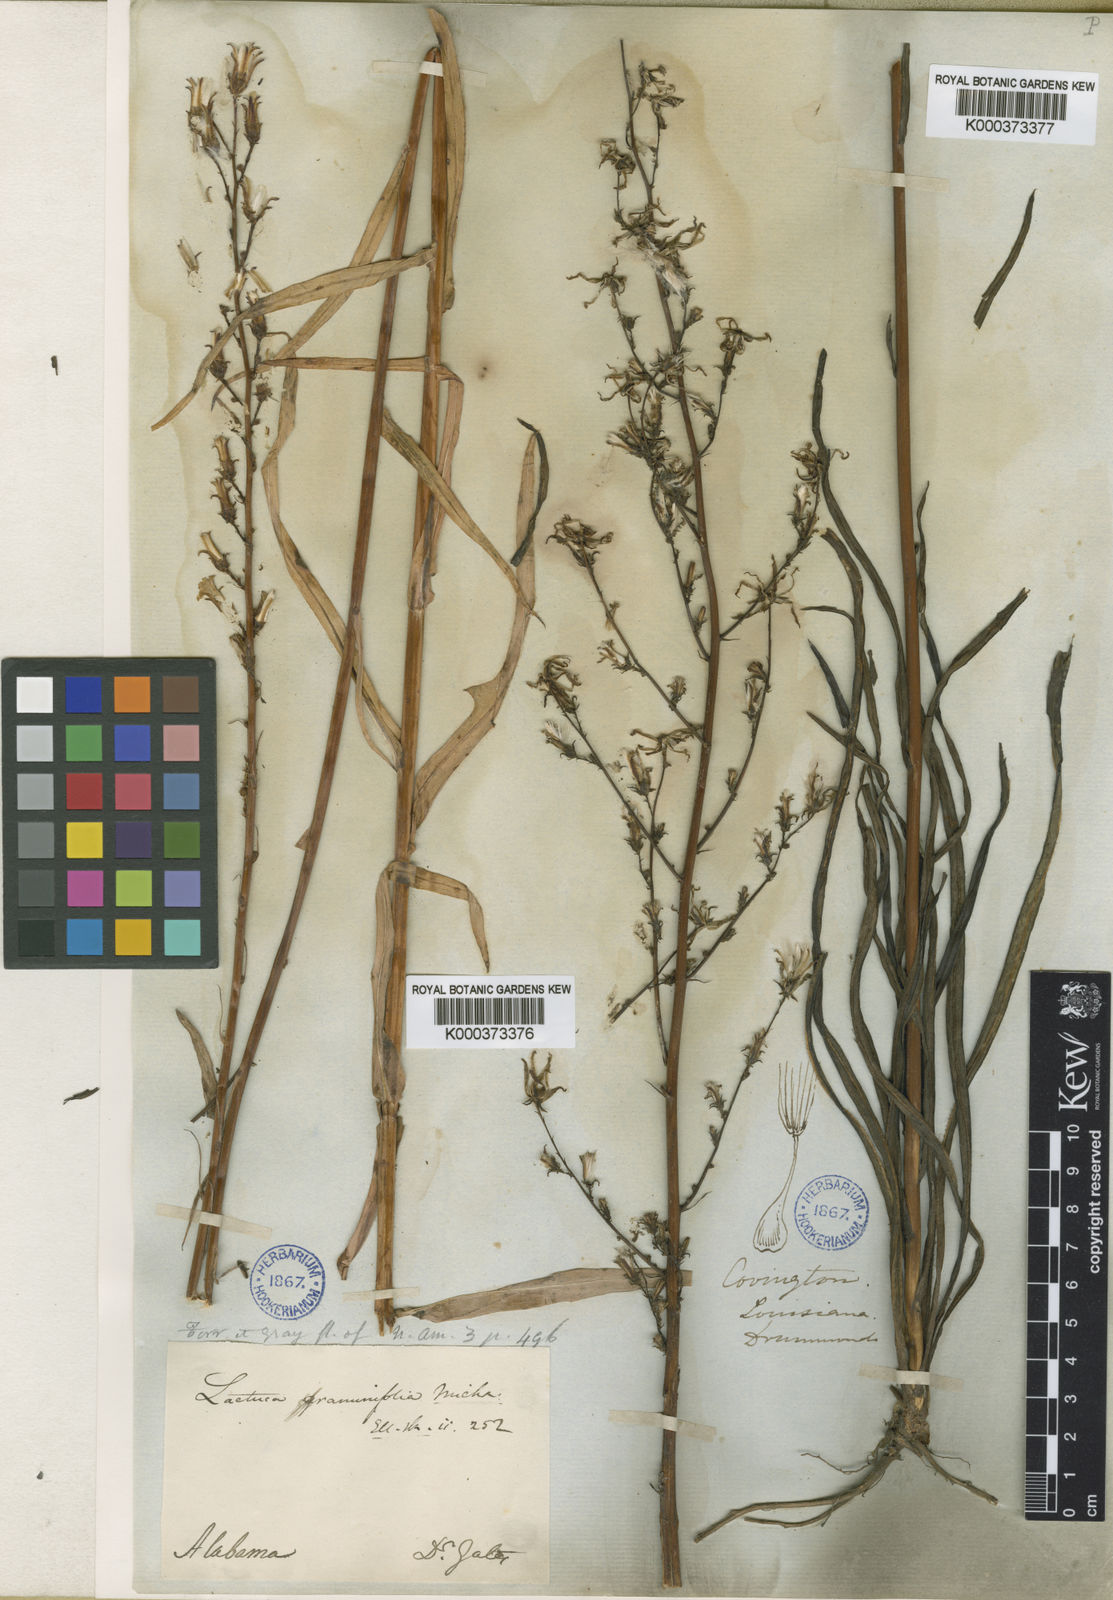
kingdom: Plantae
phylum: Tracheophyta
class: Magnoliopsida
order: Asterales
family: Asteraceae
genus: Lactuca
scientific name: Lactuca graminifolia
